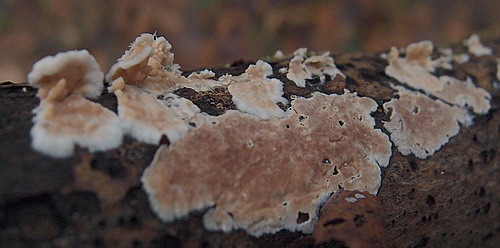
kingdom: Fungi
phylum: Basidiomycota
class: Agaricomycetes
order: Agaricales
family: Physalacriaceae
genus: Cylindrobasidium
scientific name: Cylindrobasidium evolvens
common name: sprækkehinde
